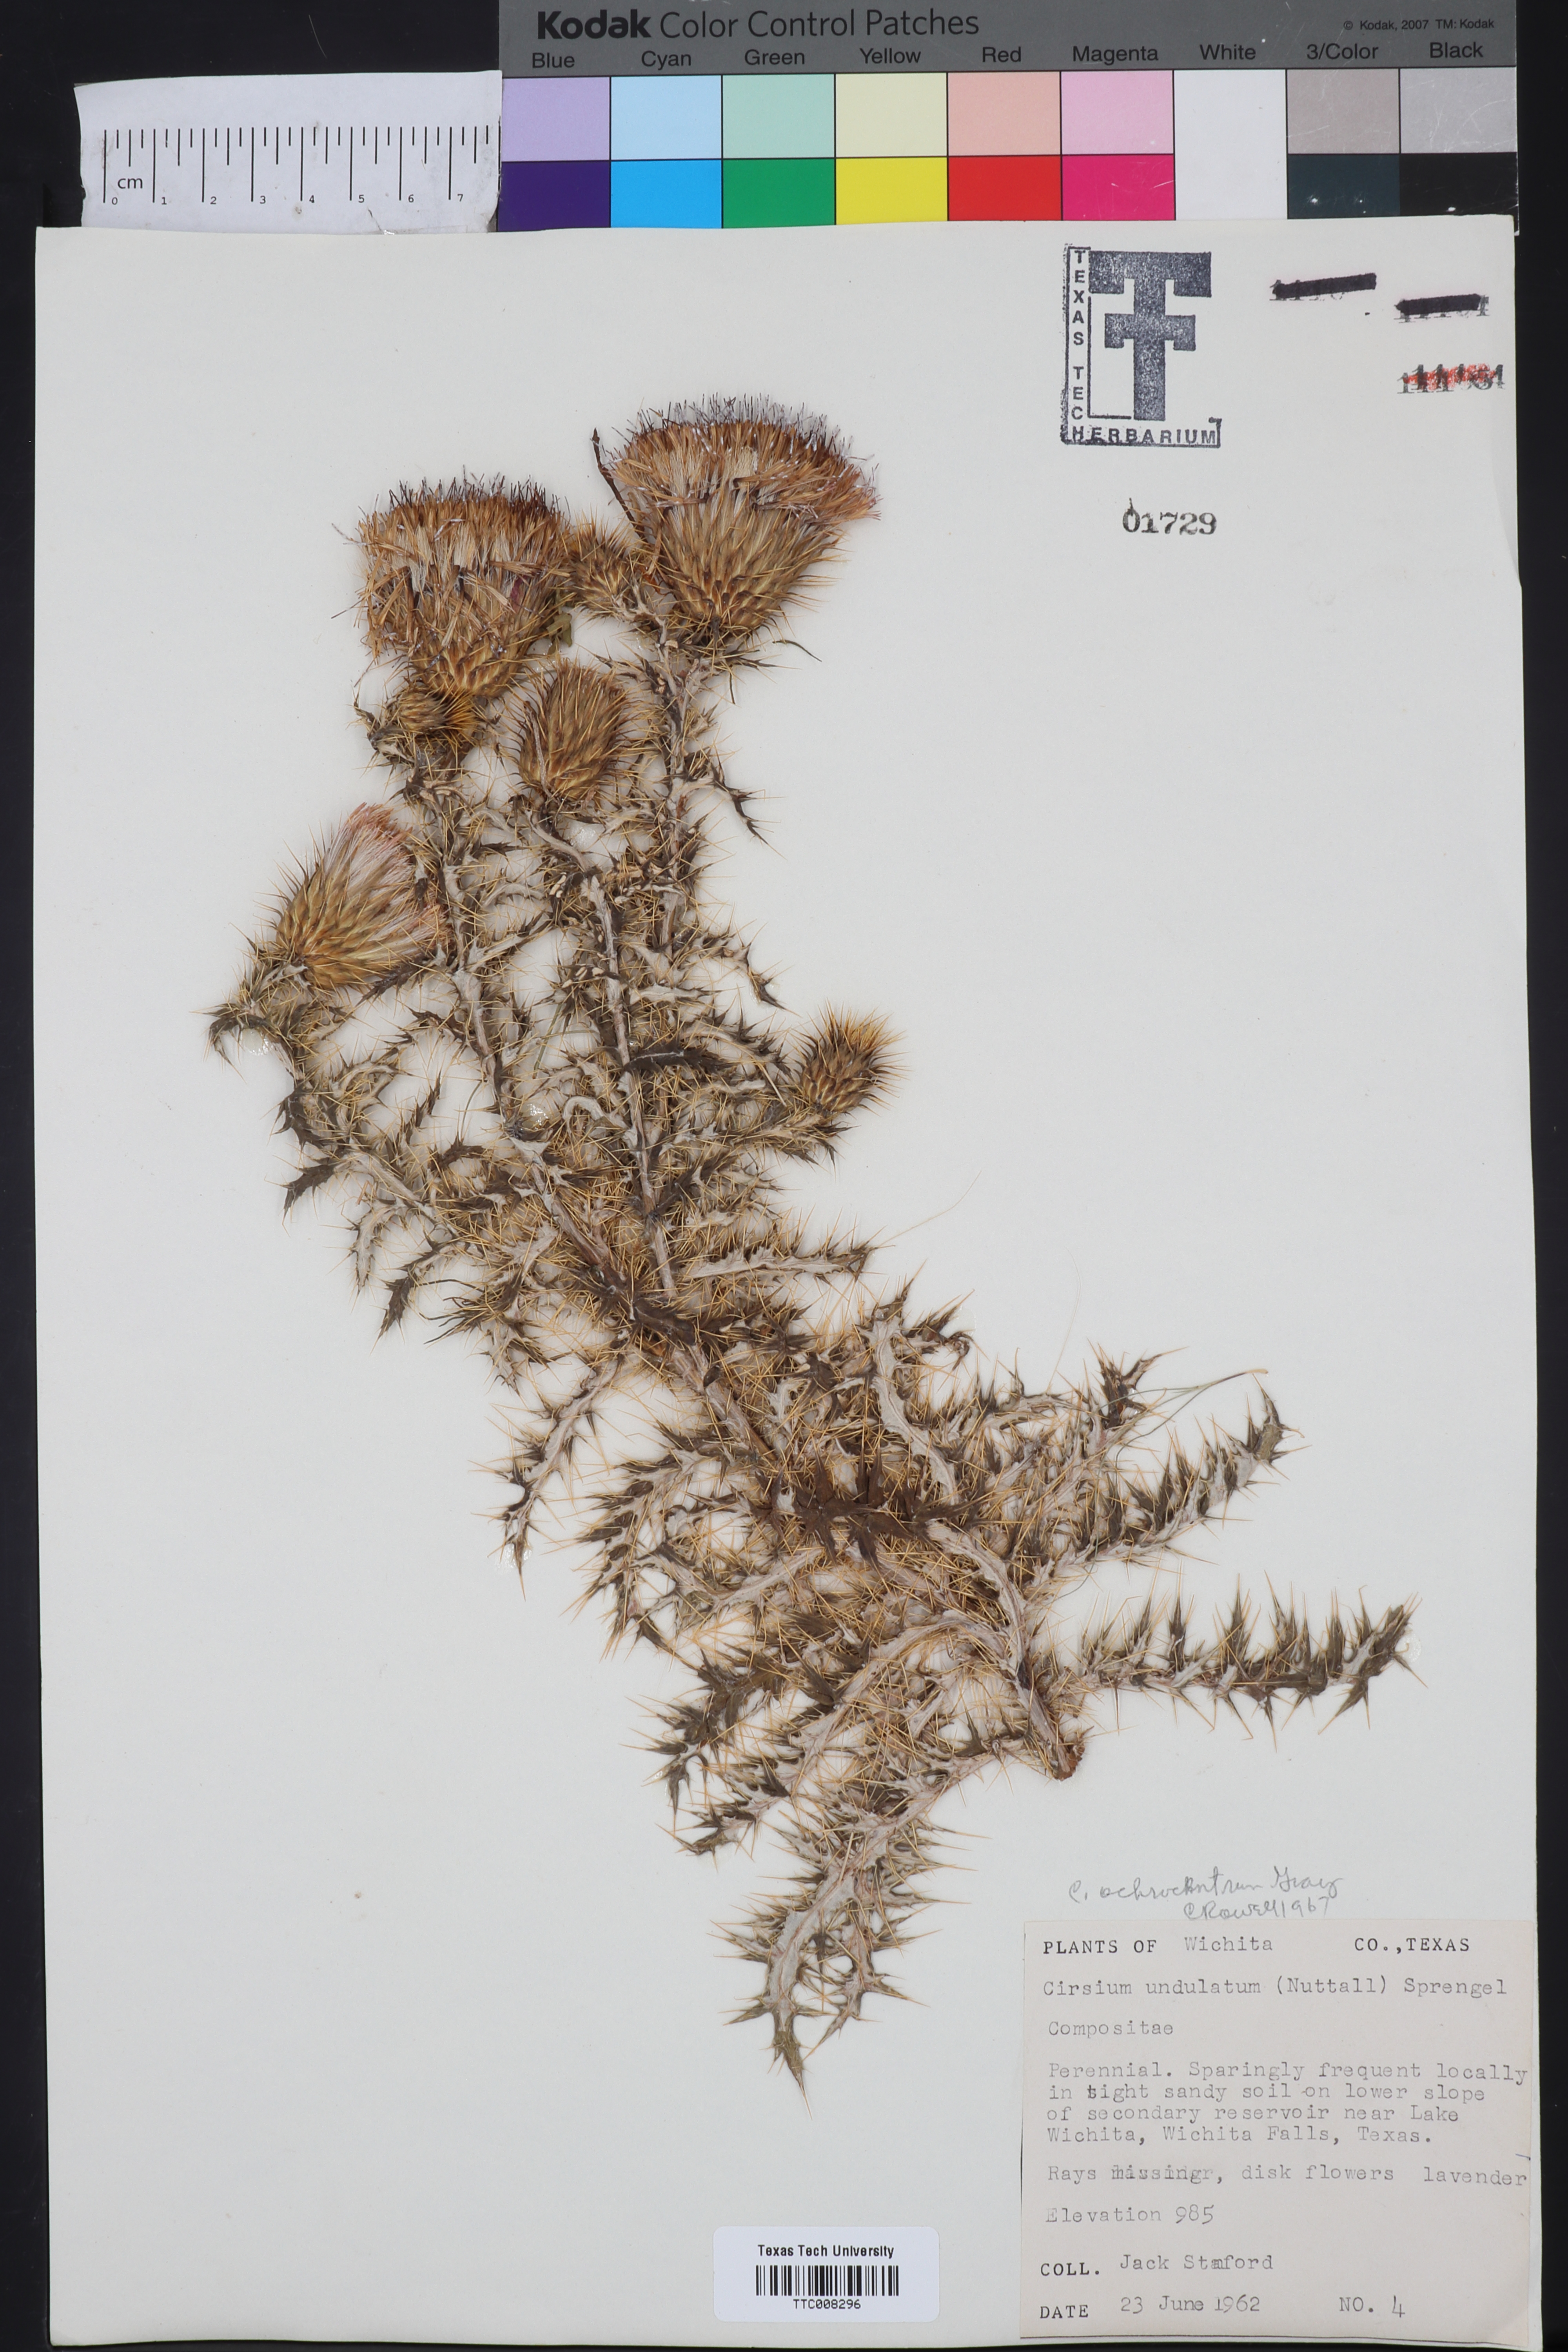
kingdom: Plantae
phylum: Tracheophyta
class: Magnoliopsida
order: Asterales
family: Asteraceae
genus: Cirsium
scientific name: Cirsium ochrocentrum
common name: Yellow-spine thistle
